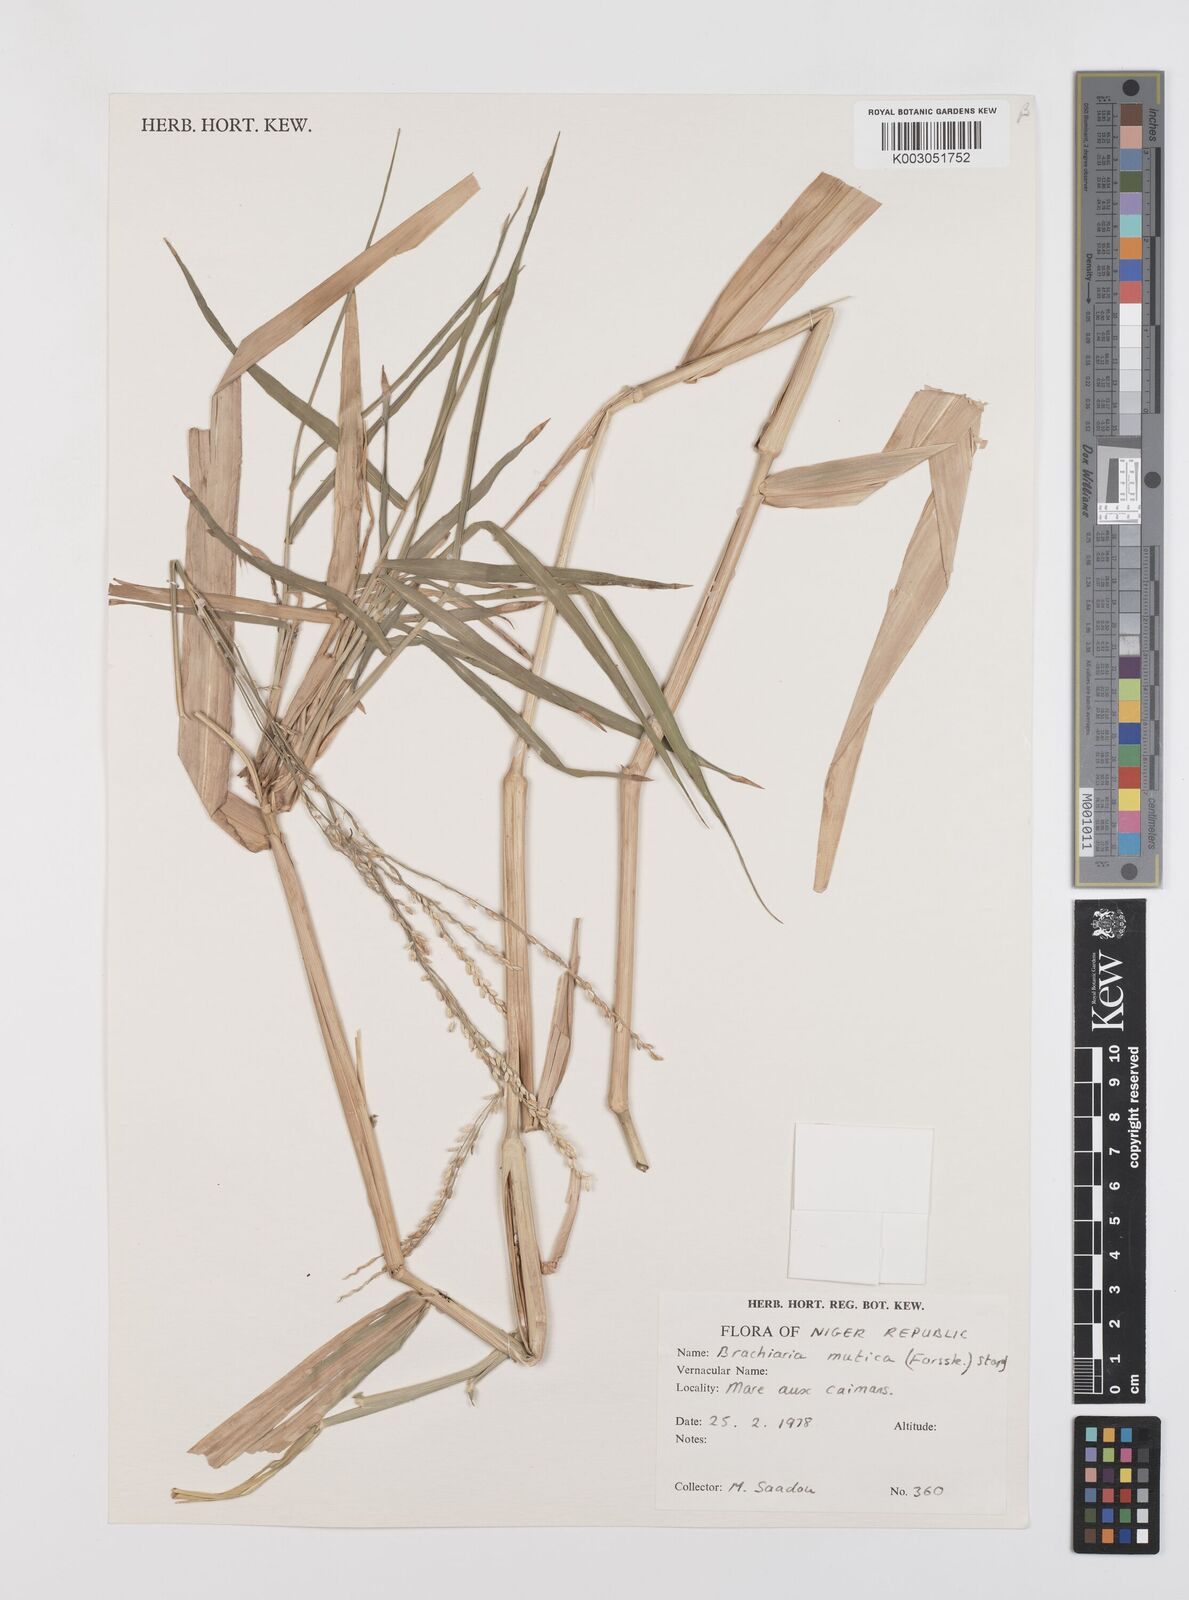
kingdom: Plantae
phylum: Tracheophyta
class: Liliopsida
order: Poales
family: Poaceae
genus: Urochloa
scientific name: Urochloa mutica
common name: Para grass
